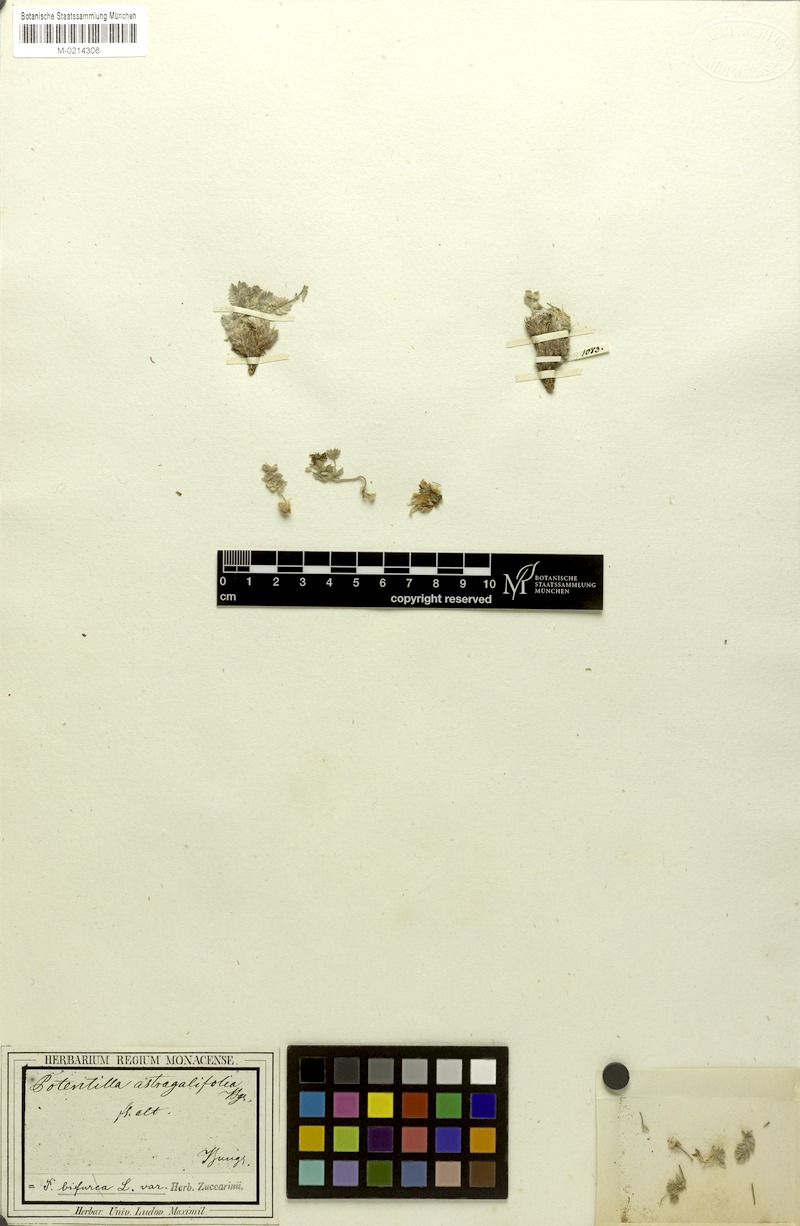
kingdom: Plantae
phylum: Tracheophyta
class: Magnoliopsida
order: Rosales
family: Rosaceae
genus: Potentilla
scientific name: Potentilla astragalifolia
